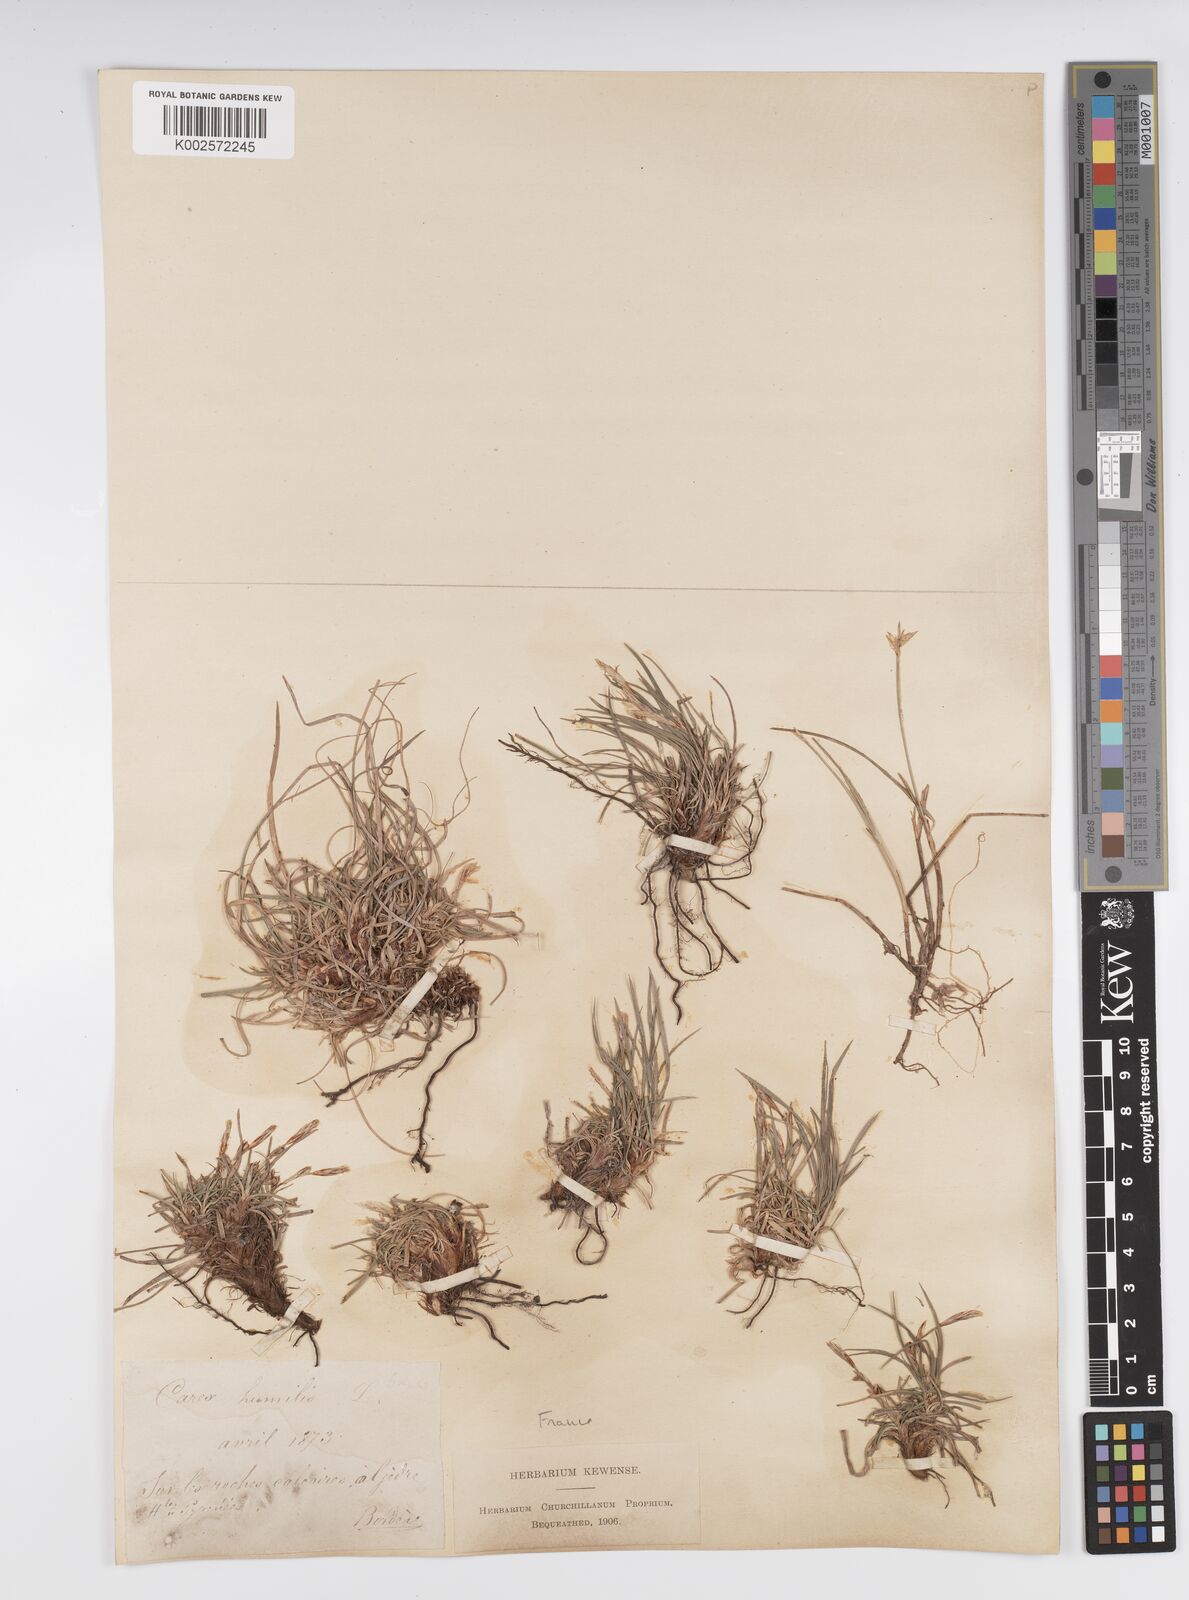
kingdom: Plantae
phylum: Tracheophyta
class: Liliopsida
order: Poales
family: Cyperaceae
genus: Carex
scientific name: Carex humilis
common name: Dwarf sedge
